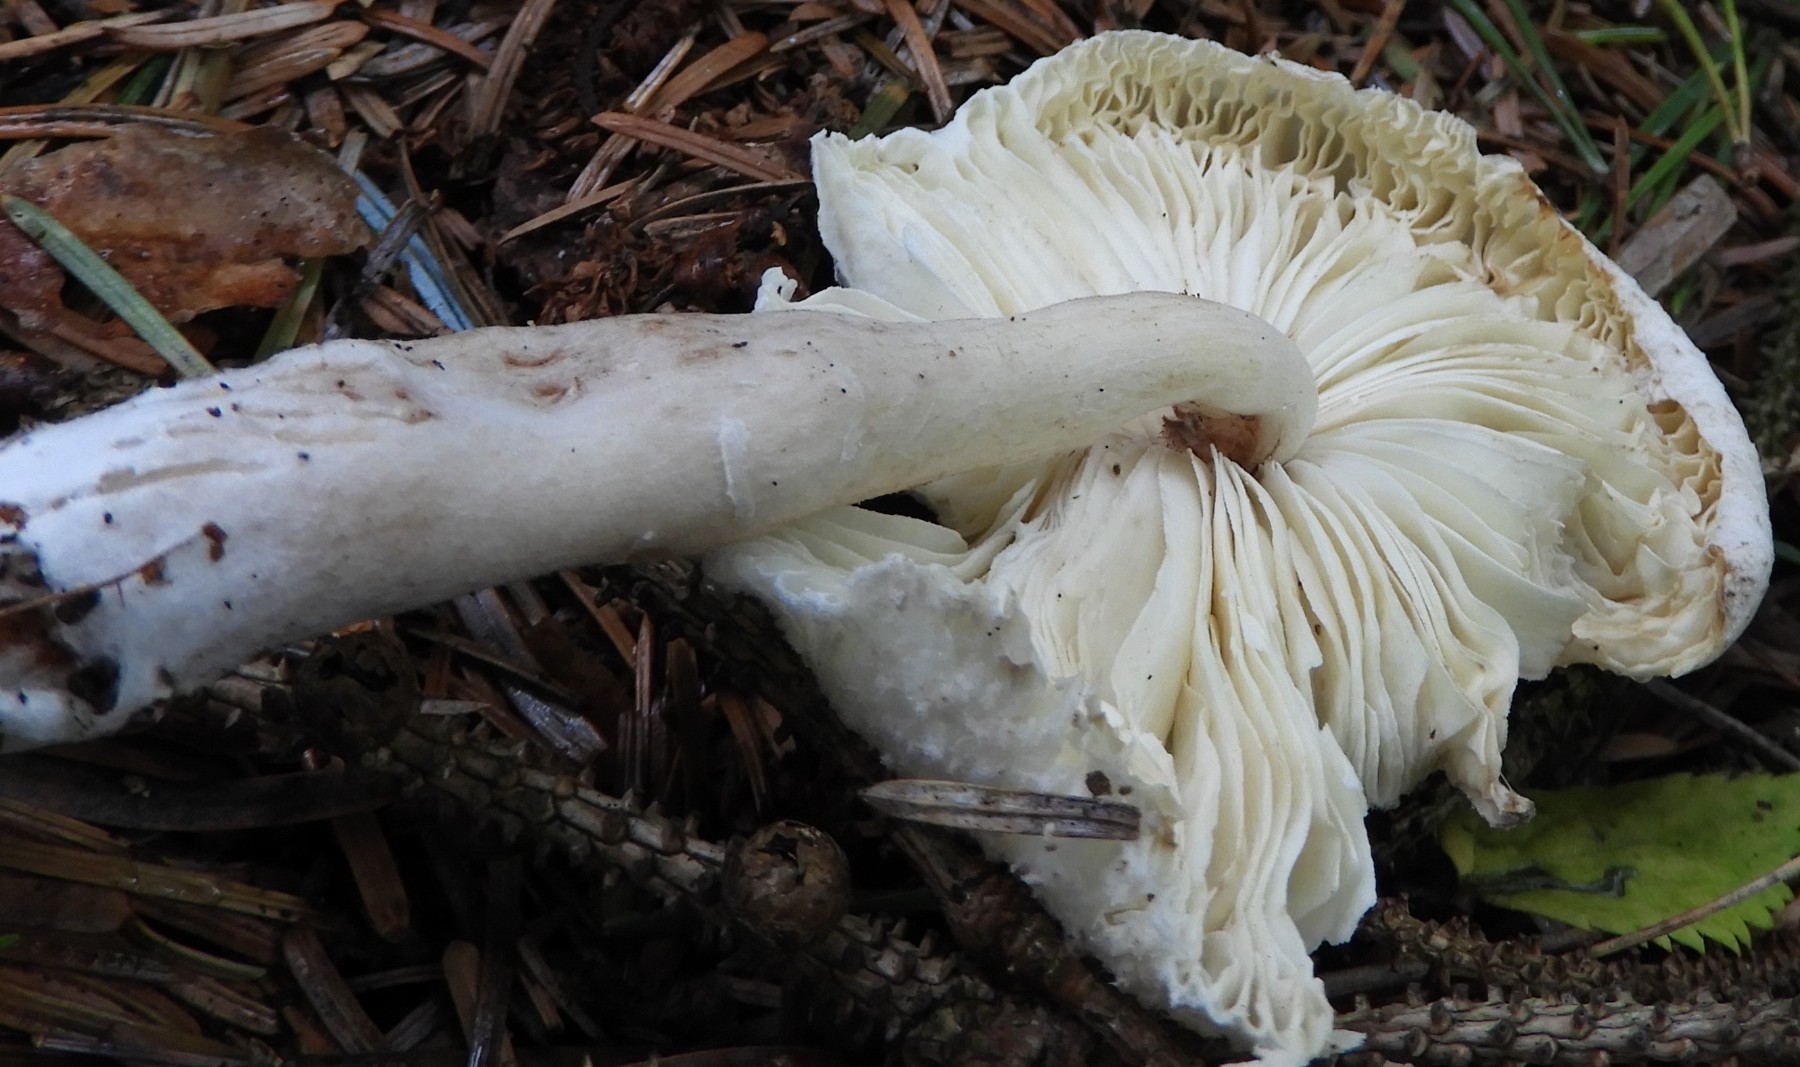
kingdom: Fungi
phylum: Basidiomycota
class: Agaricomycetes
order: Agaricales
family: Agaricaceae
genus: Leucocoprinus
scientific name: Leucocoprinus brebissonii
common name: gråsort silkehat
